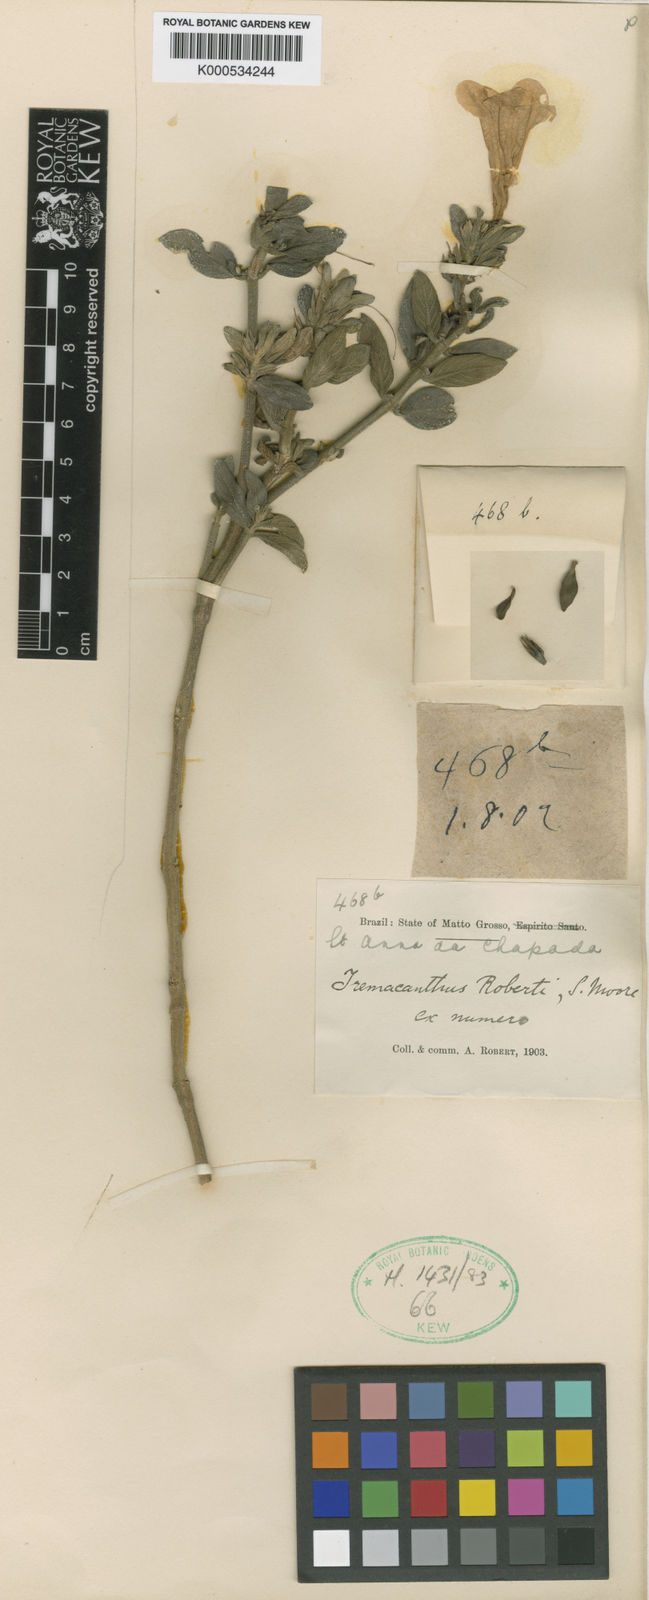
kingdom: Plantae
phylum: Tracheophyta
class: Magnoliopsida
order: Lamiales
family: Acanthaceae
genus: Ruellia
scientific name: Ruellia
